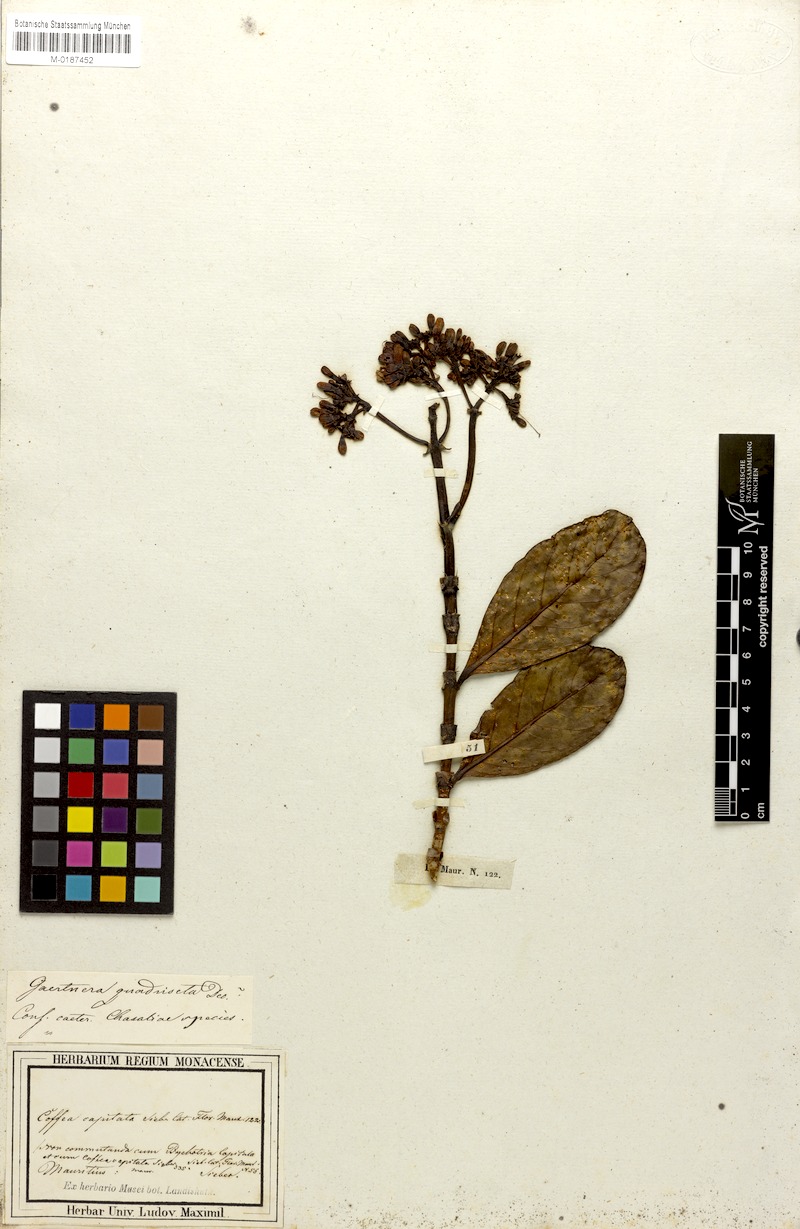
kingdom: Plantae
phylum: Tracheophyta
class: Magnoliopsida
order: Gentianales
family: Rubiaceae
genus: Gaertnera
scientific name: Gaertnera psychotrioides
